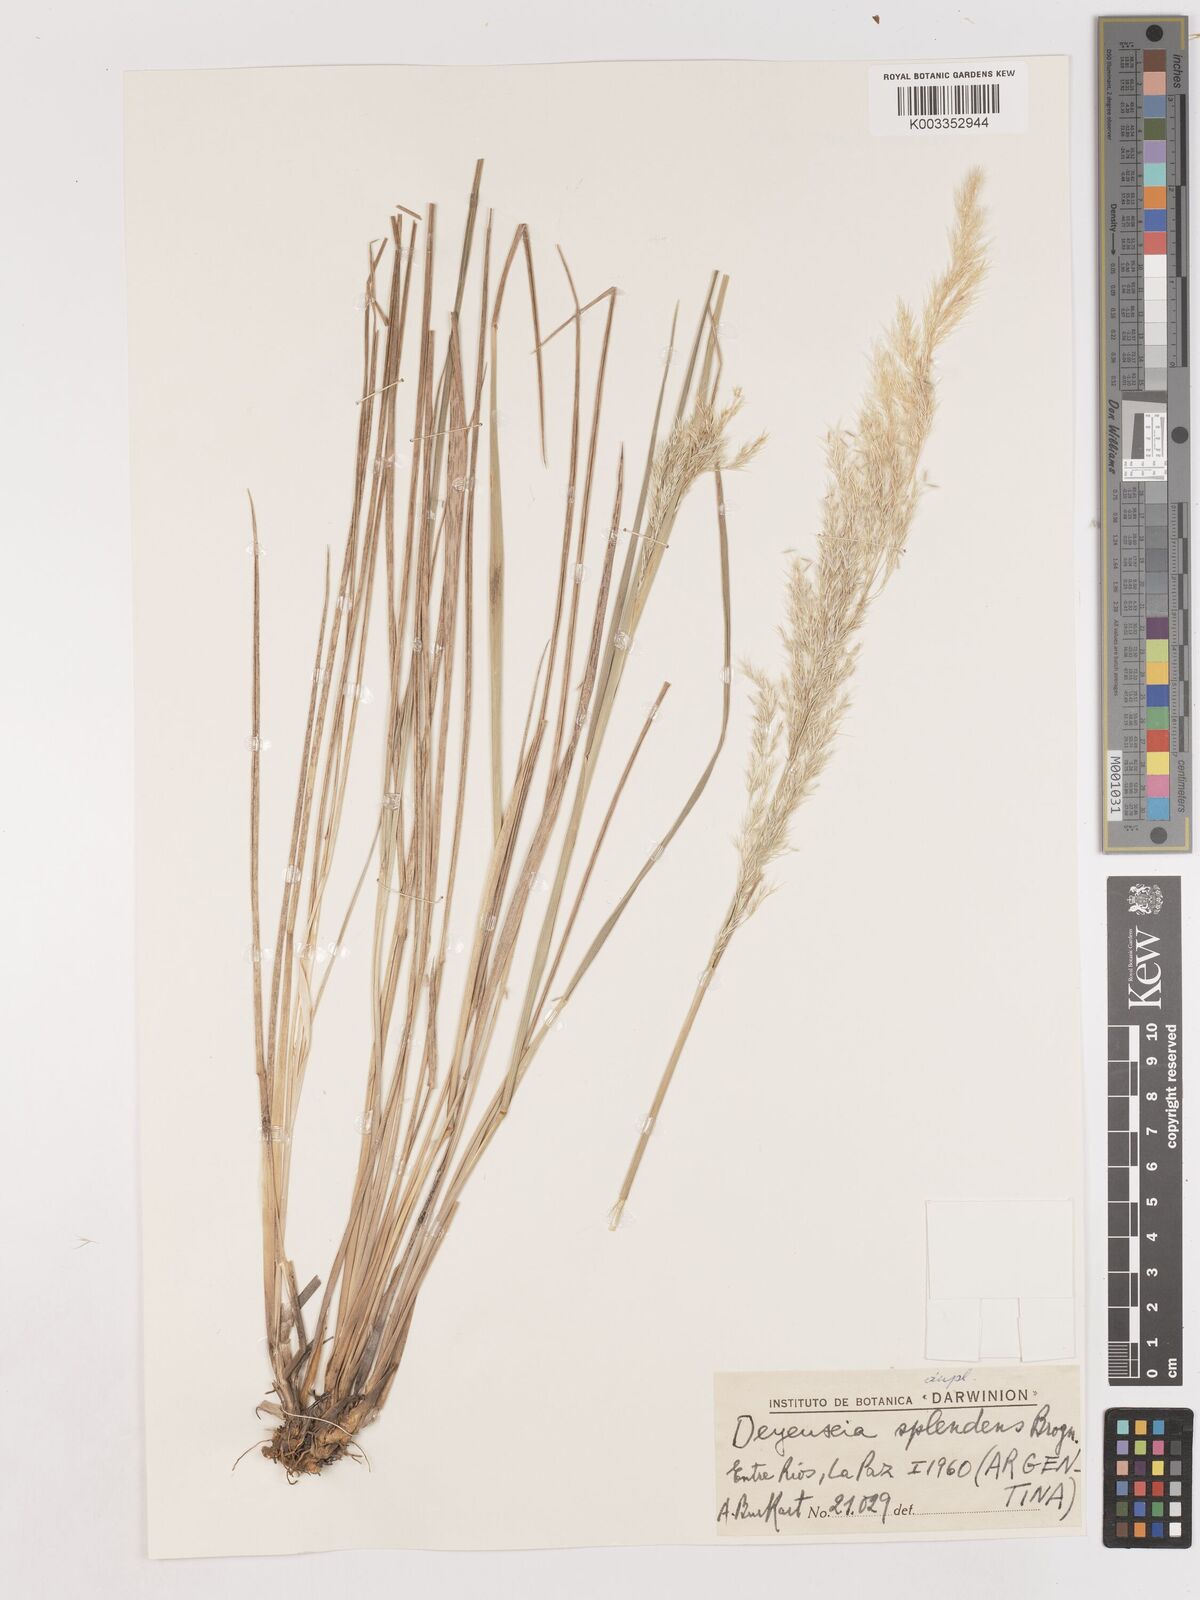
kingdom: Plantae
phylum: Tracheophyta
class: Liliopsida
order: Poales
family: Poaceae
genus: Cinnagrostis
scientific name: Cinnagrostis viridiflavescens
